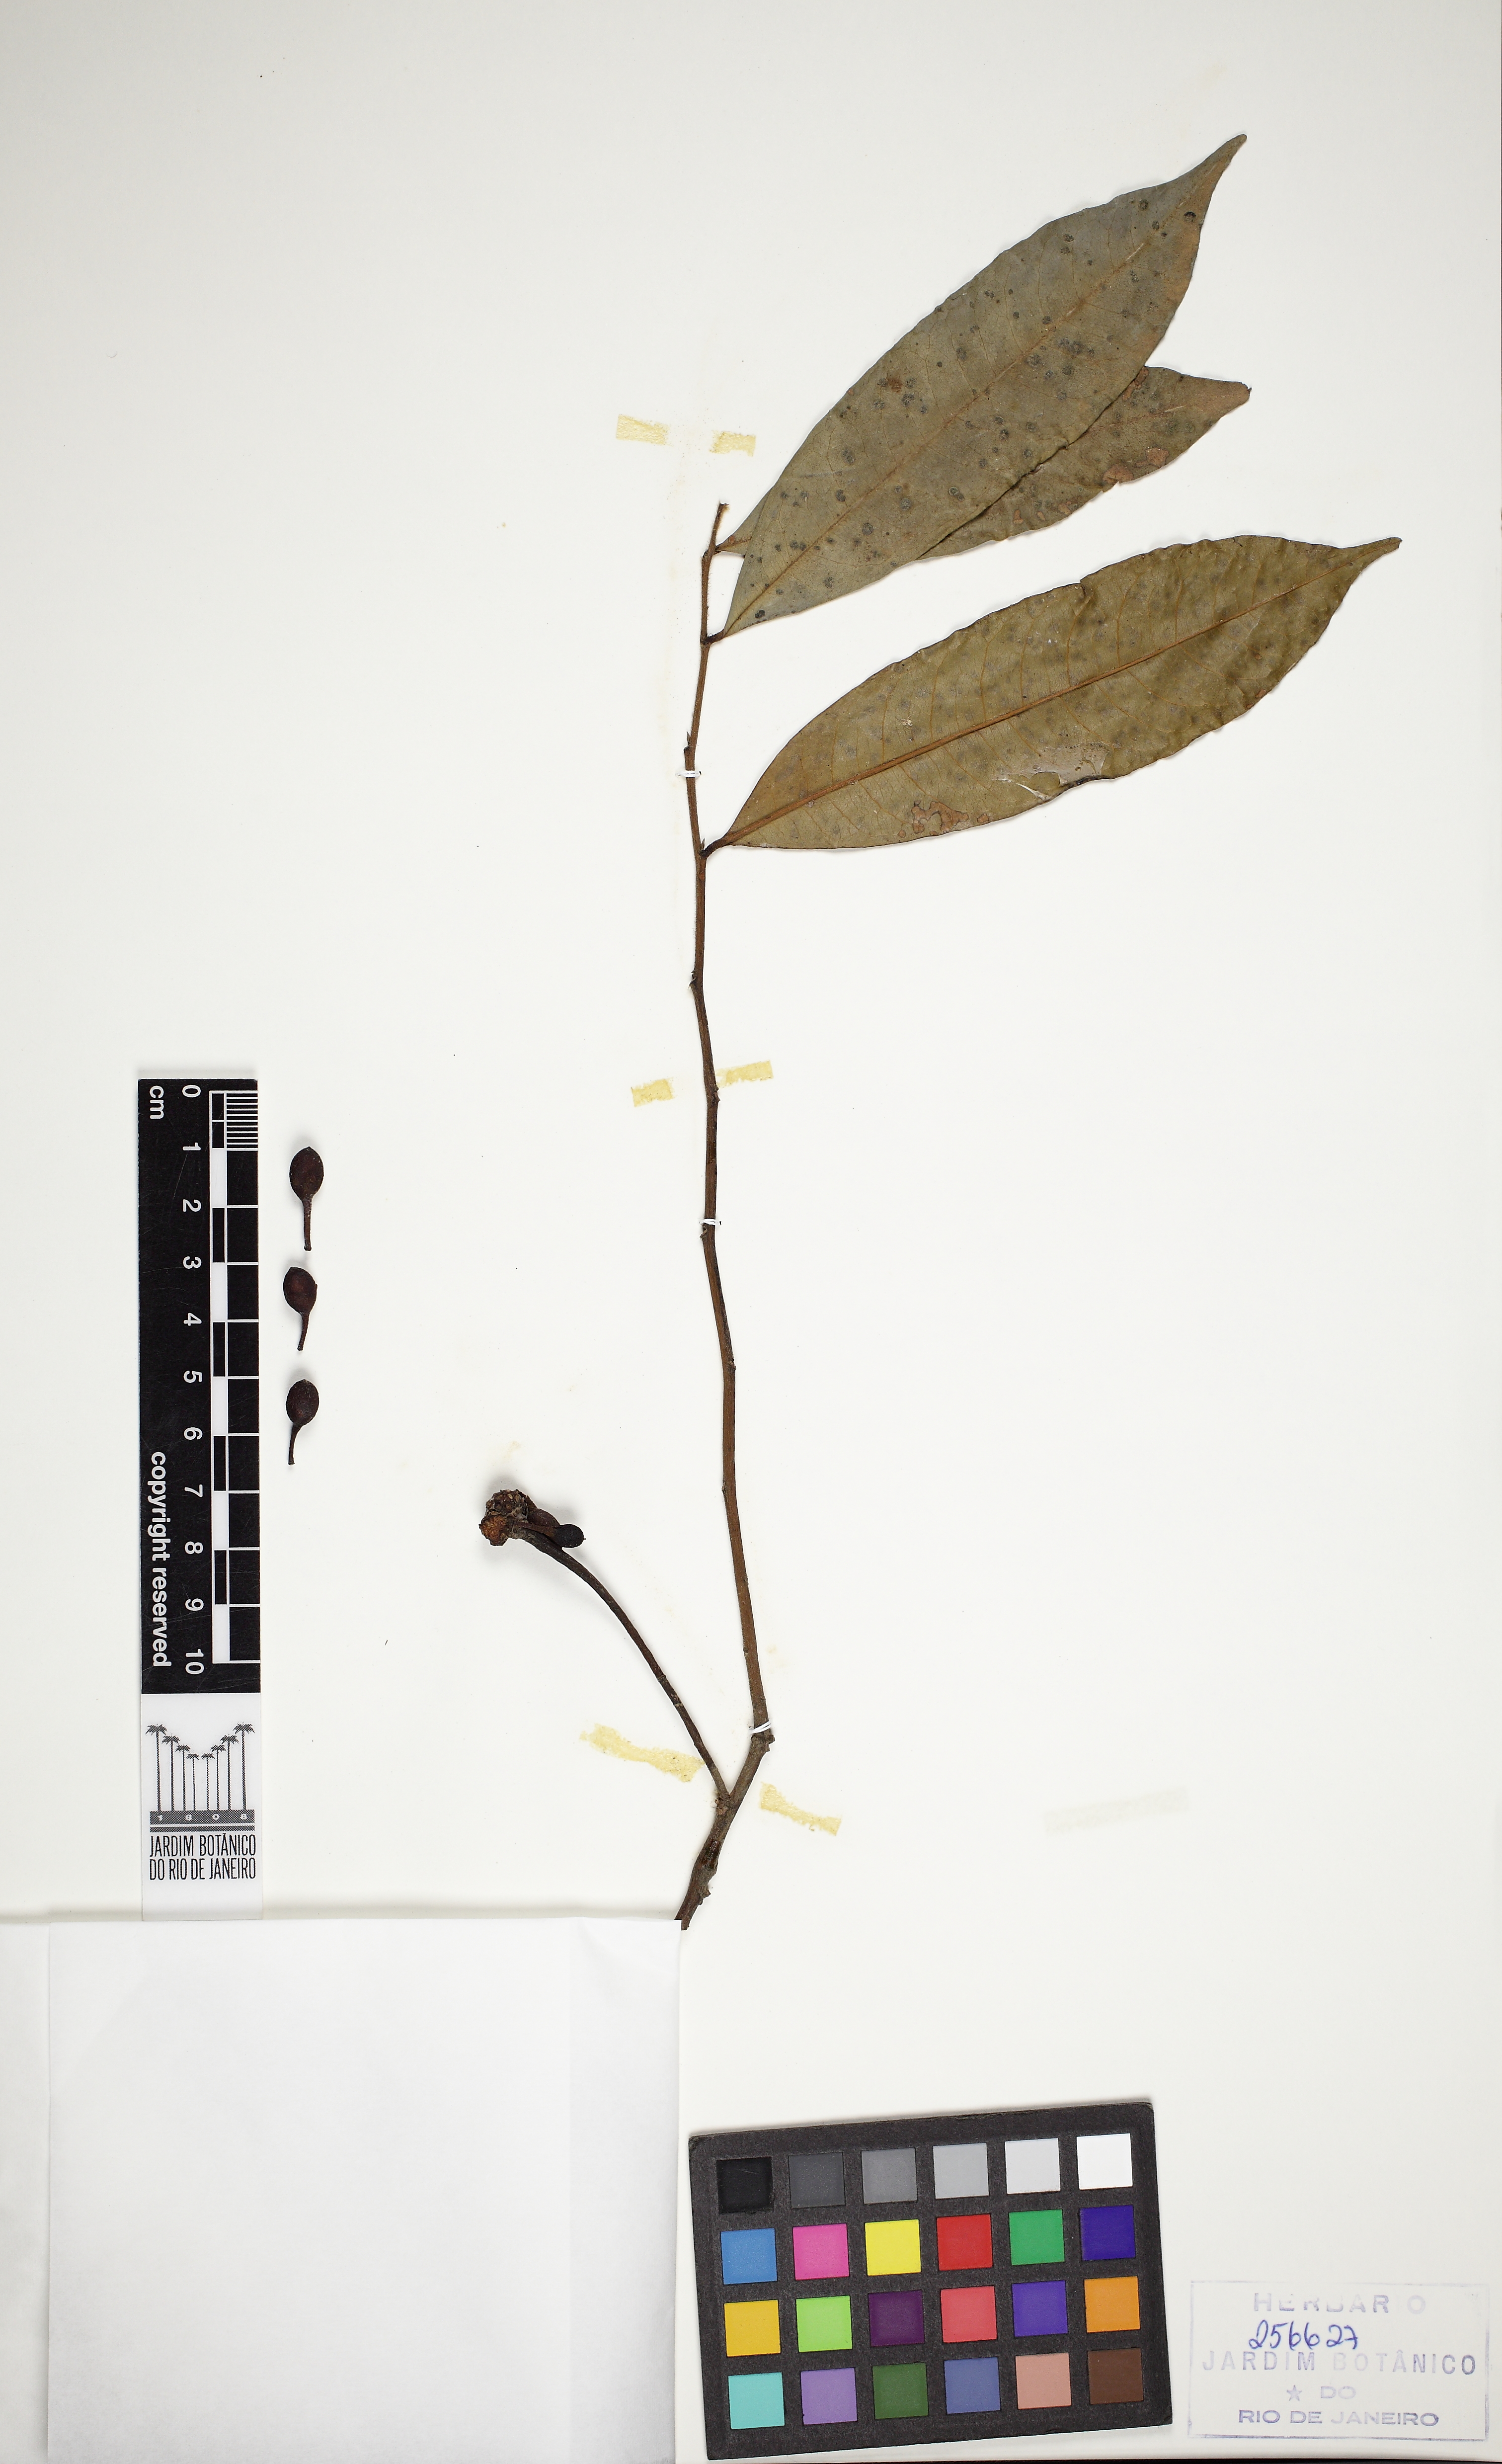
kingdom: Plantae
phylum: Tracheophyta
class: Magnoliopsida
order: Magnoliales
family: Annonaceae
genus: Guatteria
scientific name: Guatteria latifolia
